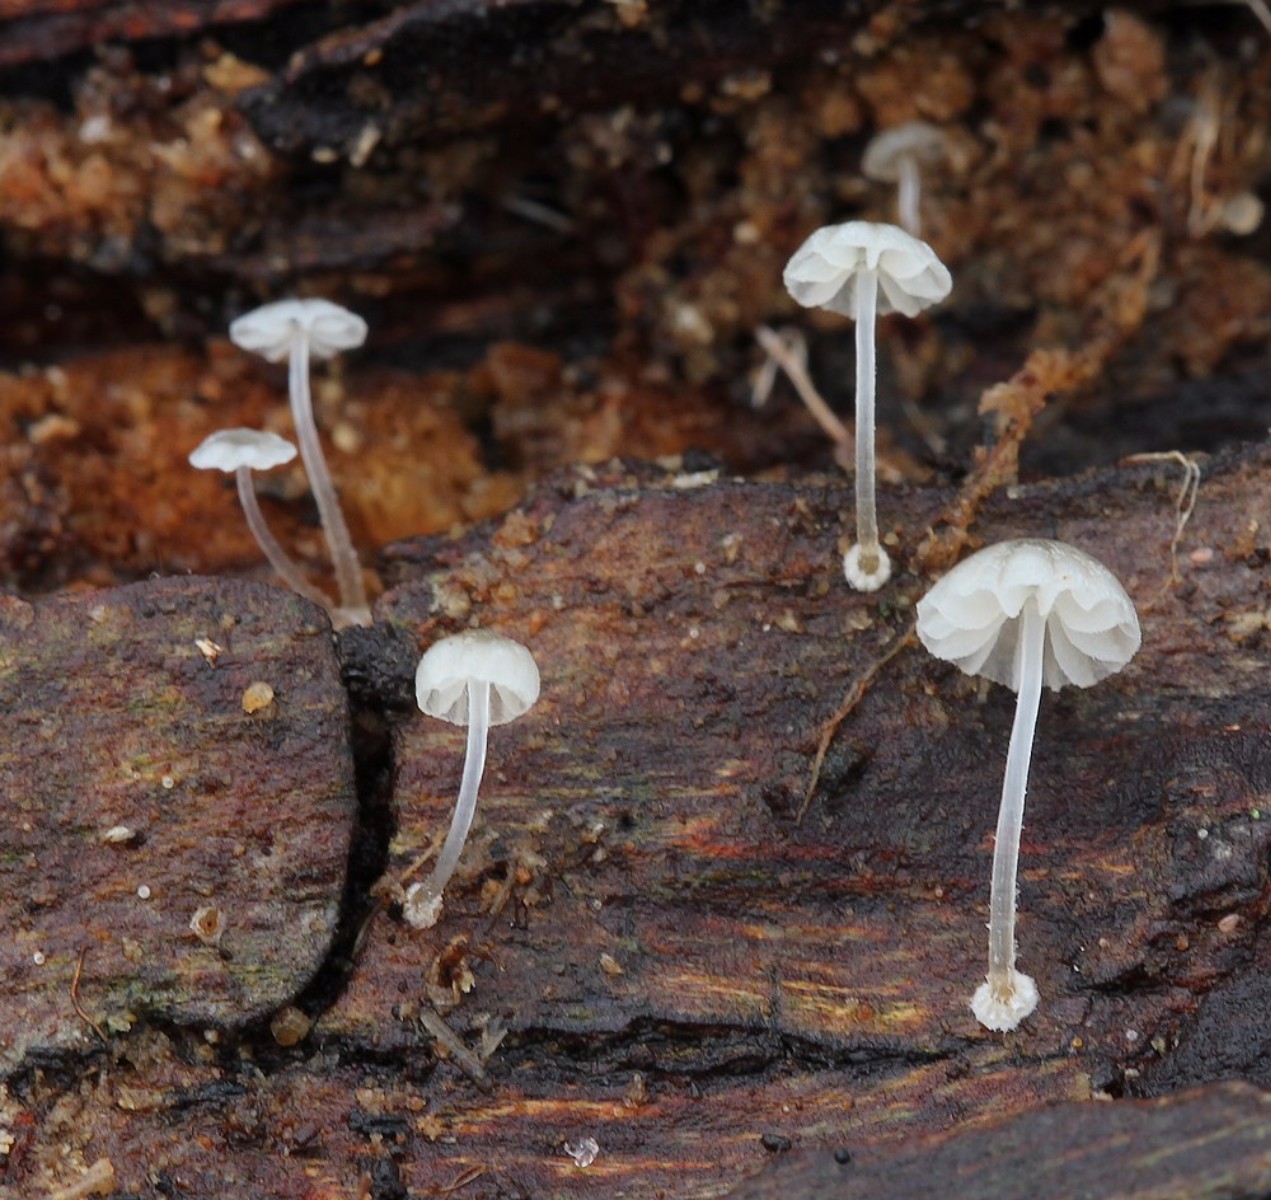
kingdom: Fungi
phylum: Basidiomycota
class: Agaricomycetes
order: Agaricales
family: Mycenaceae
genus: Mycena
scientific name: Mycena clavularis
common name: dunskivet huesvamp
